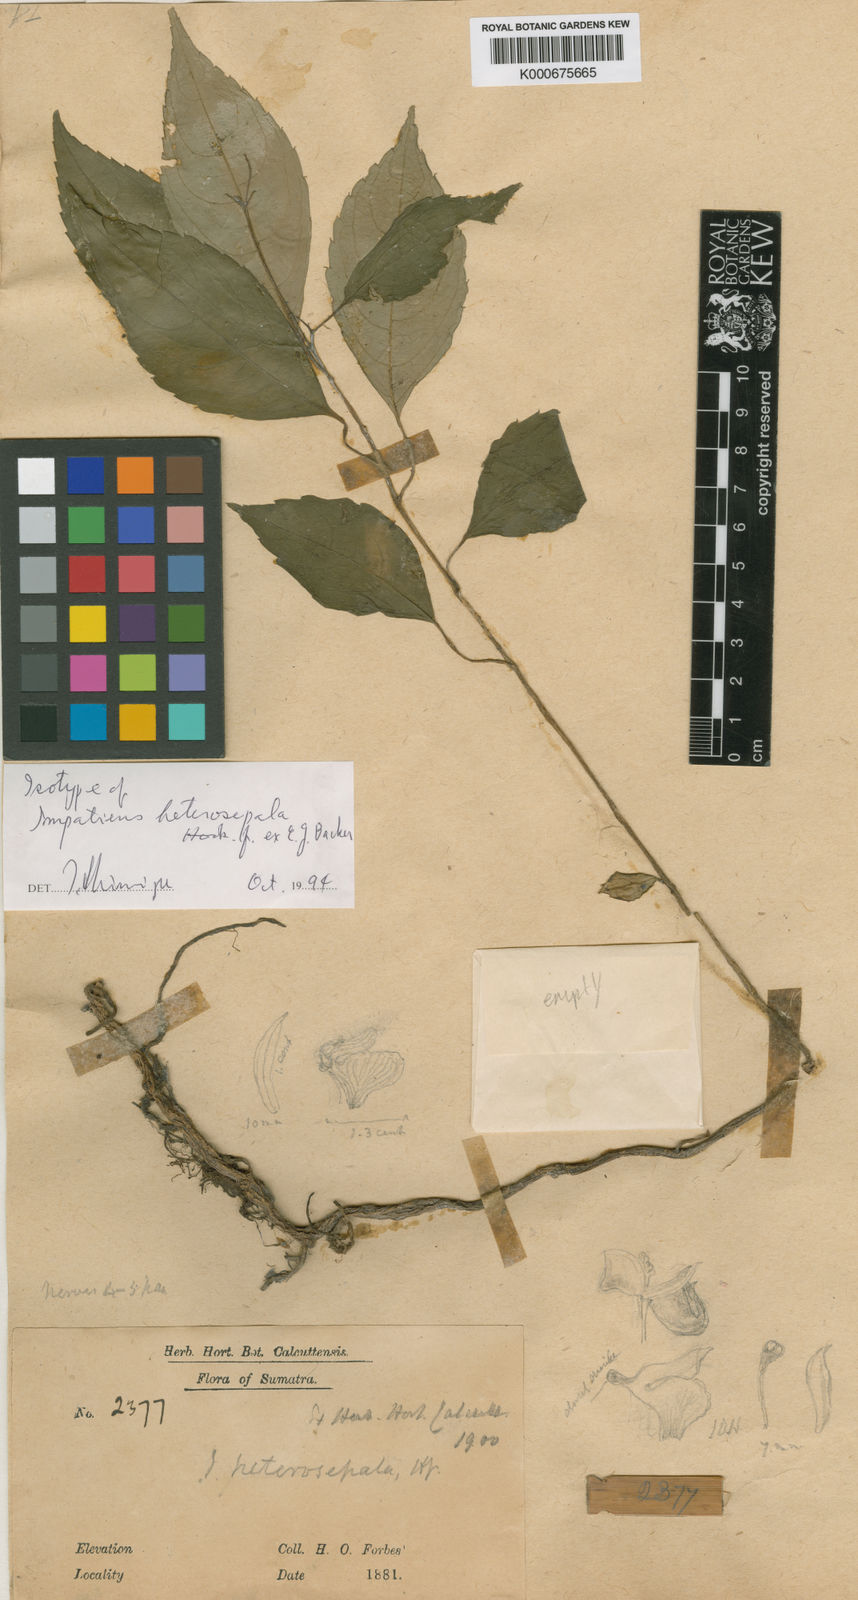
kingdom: Plantae
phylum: Tracheophyta
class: Magnoliopsida
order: Ericales
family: Balsaminaceae
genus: Impatiens
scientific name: Impatiens heterosepala
